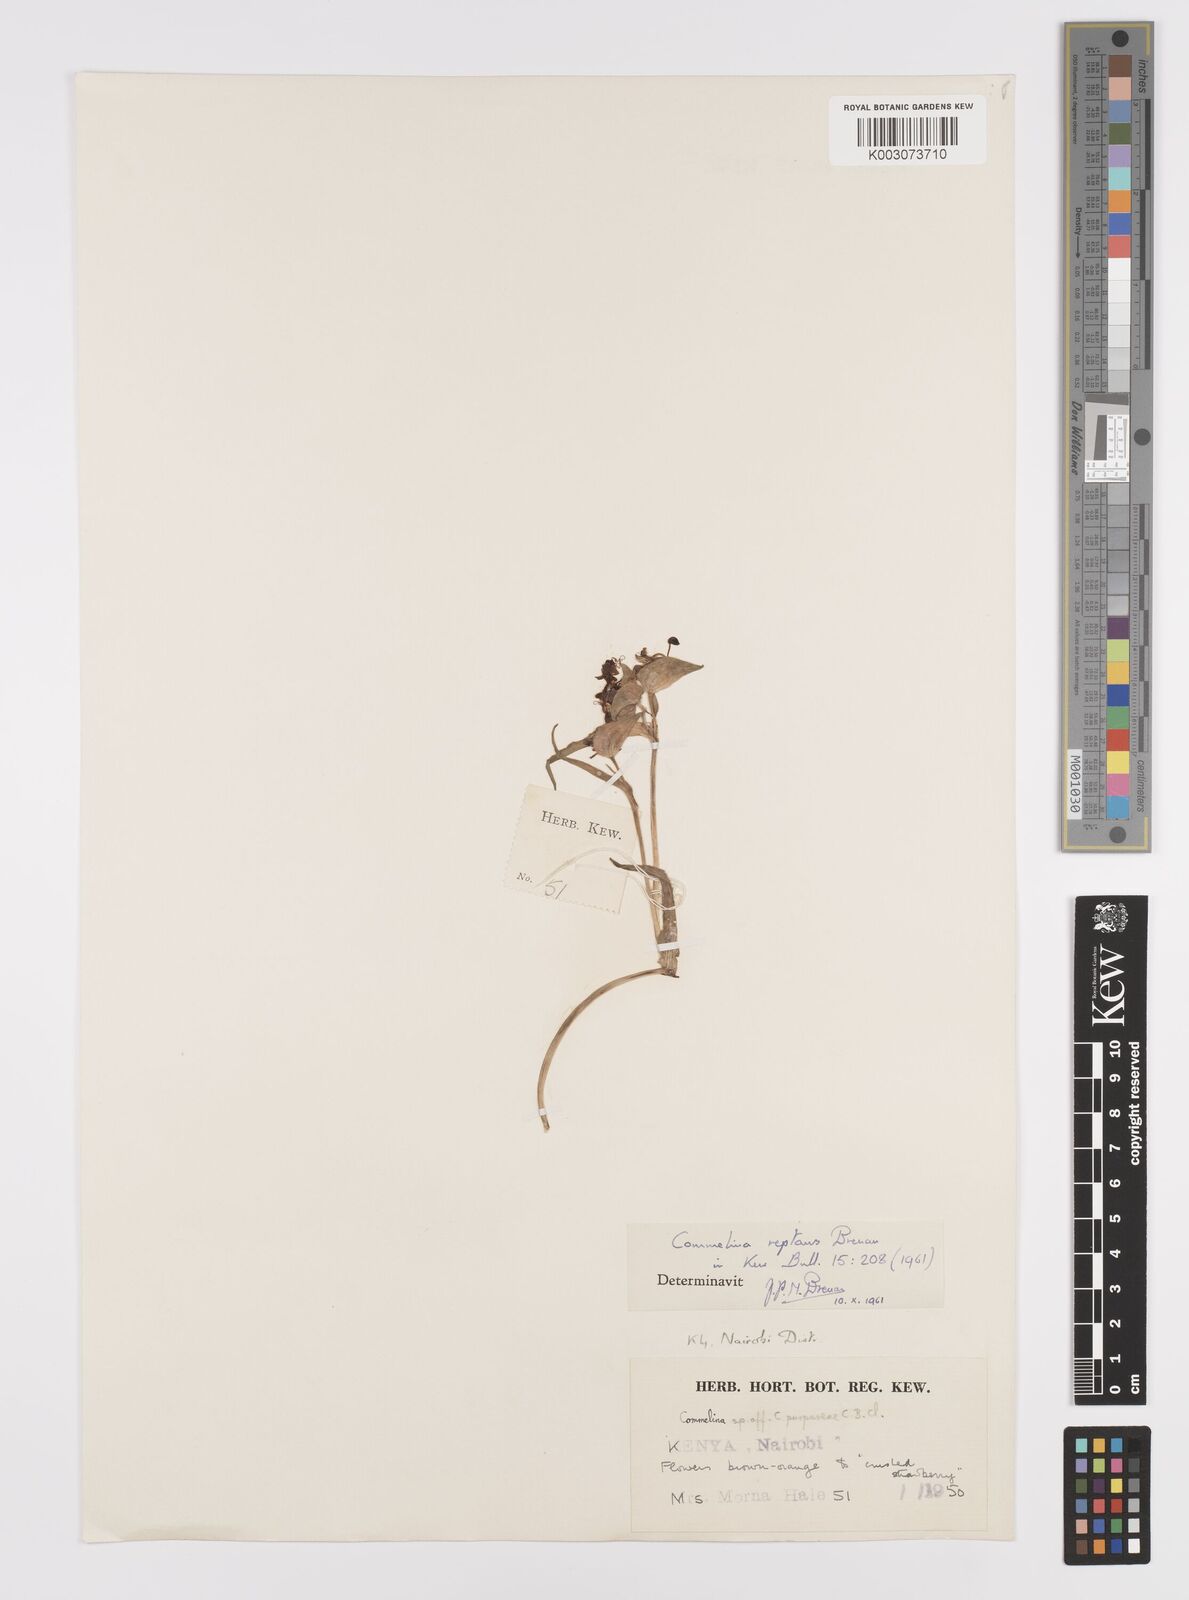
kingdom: Plantae
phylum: Tracheophyta
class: Liliopsida
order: Commelinales
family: Commelinaceae
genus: Commelina
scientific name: Commelina reptans
